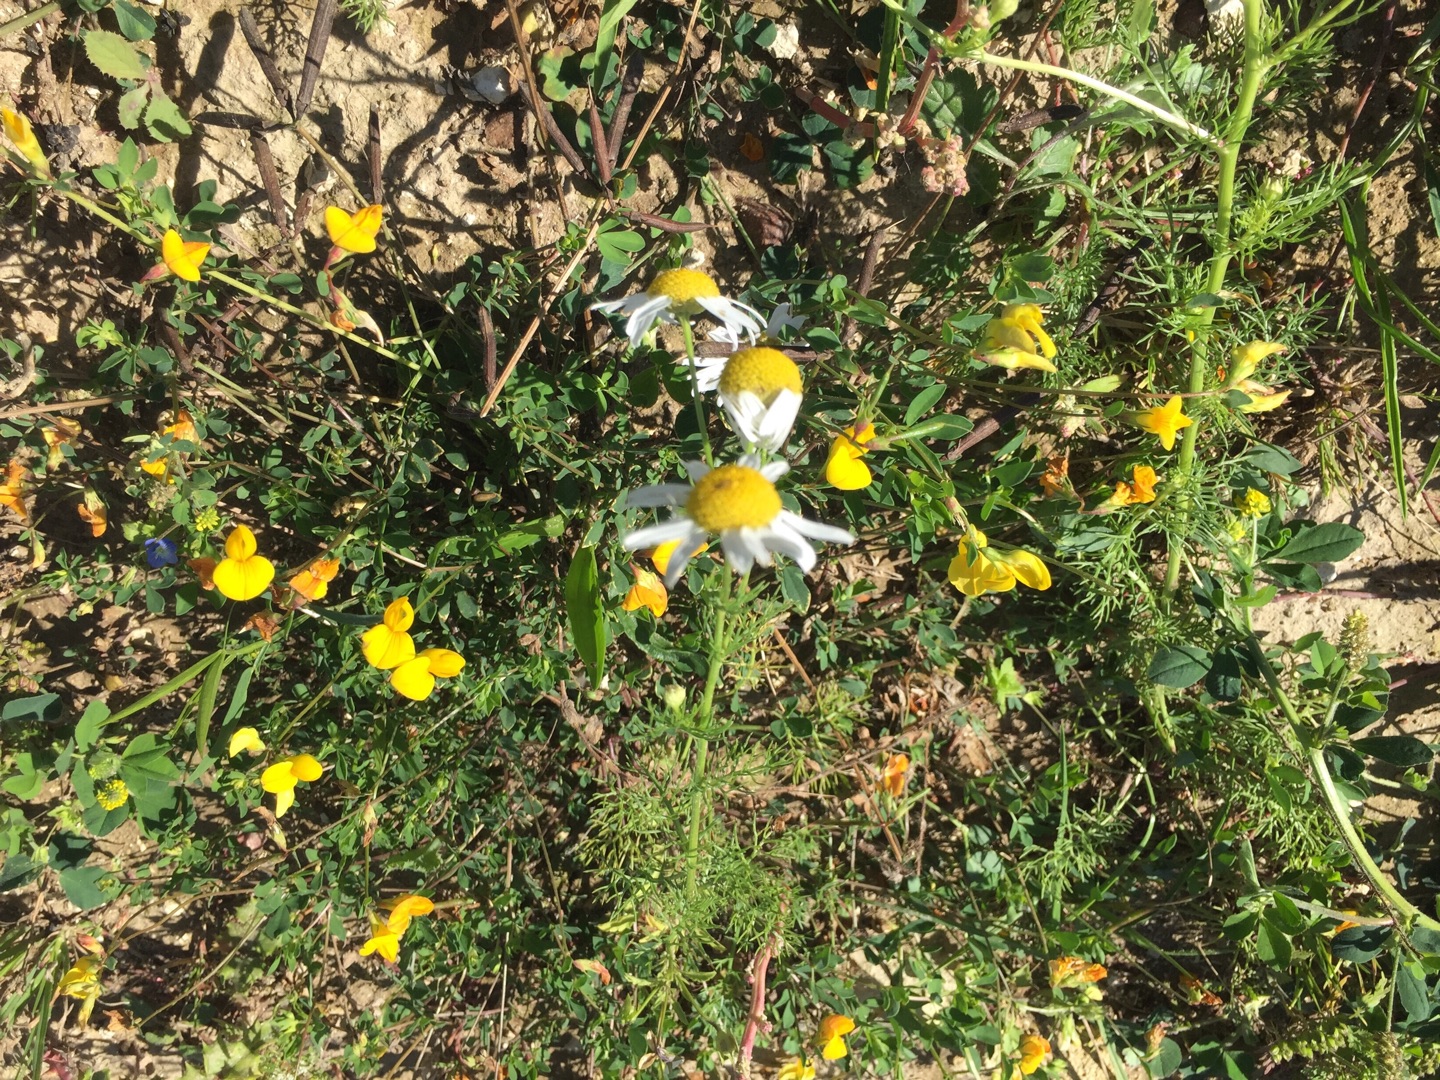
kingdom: Plantae
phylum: Tracheophyta
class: Magnoliopsida
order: Fabales
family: Fabaceae
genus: Lotus
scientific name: Lotus corniculatus
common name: Almindelig kællingetand
